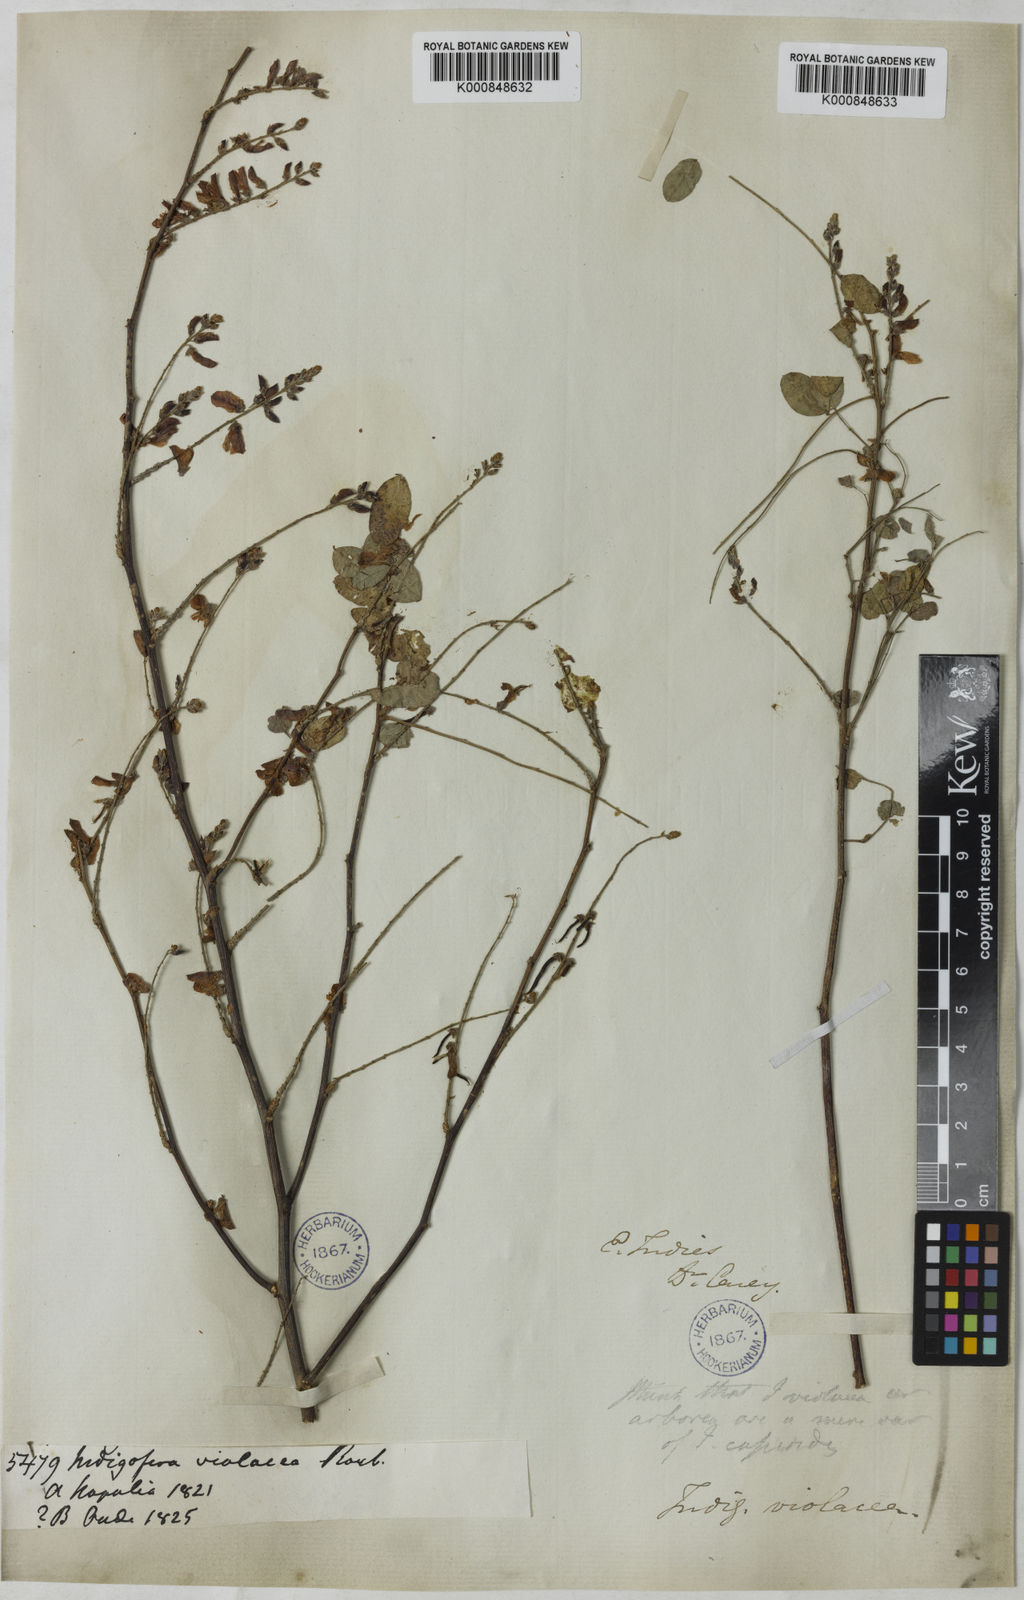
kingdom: Plantae
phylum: Tracheophyta
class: Magnoliopsida
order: Fabales
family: Fabaceae
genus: Indigofera
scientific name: Indigofera cassioides
